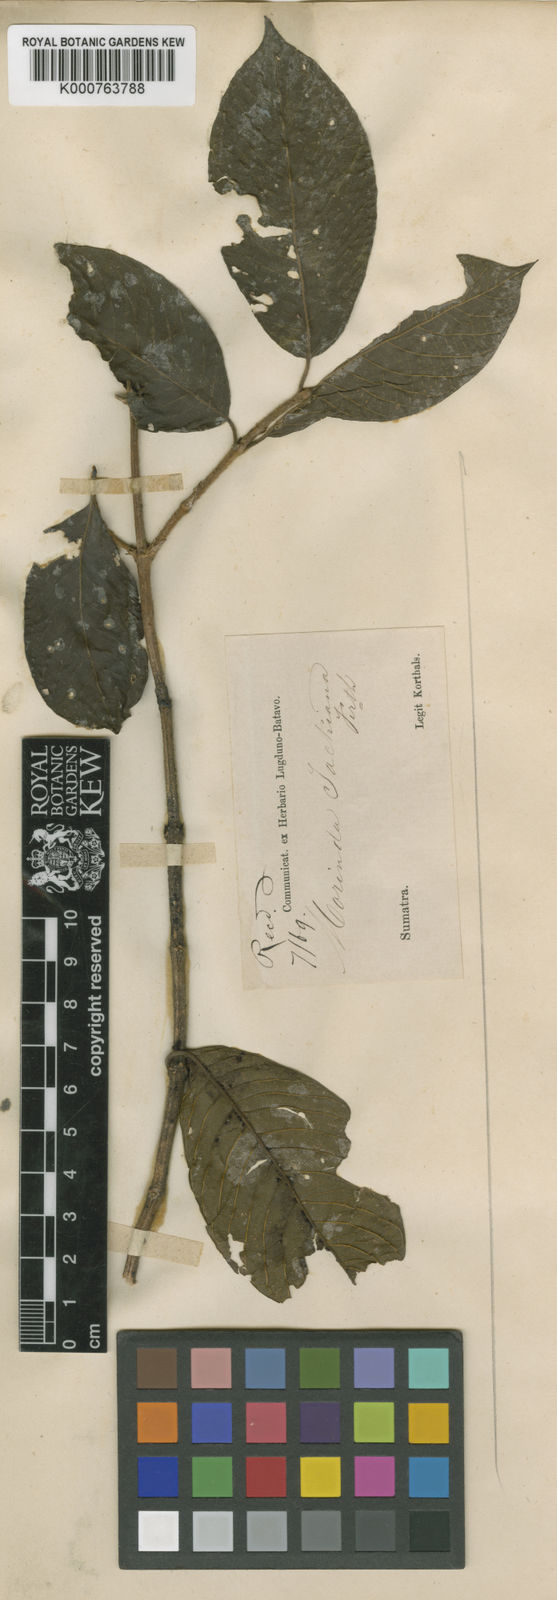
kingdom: Plantae
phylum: Tracheophyta
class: Magnoliopsida
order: Gentianales
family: Rubiaceae
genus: Gynochthodes
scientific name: Gynochthodes jackiana
